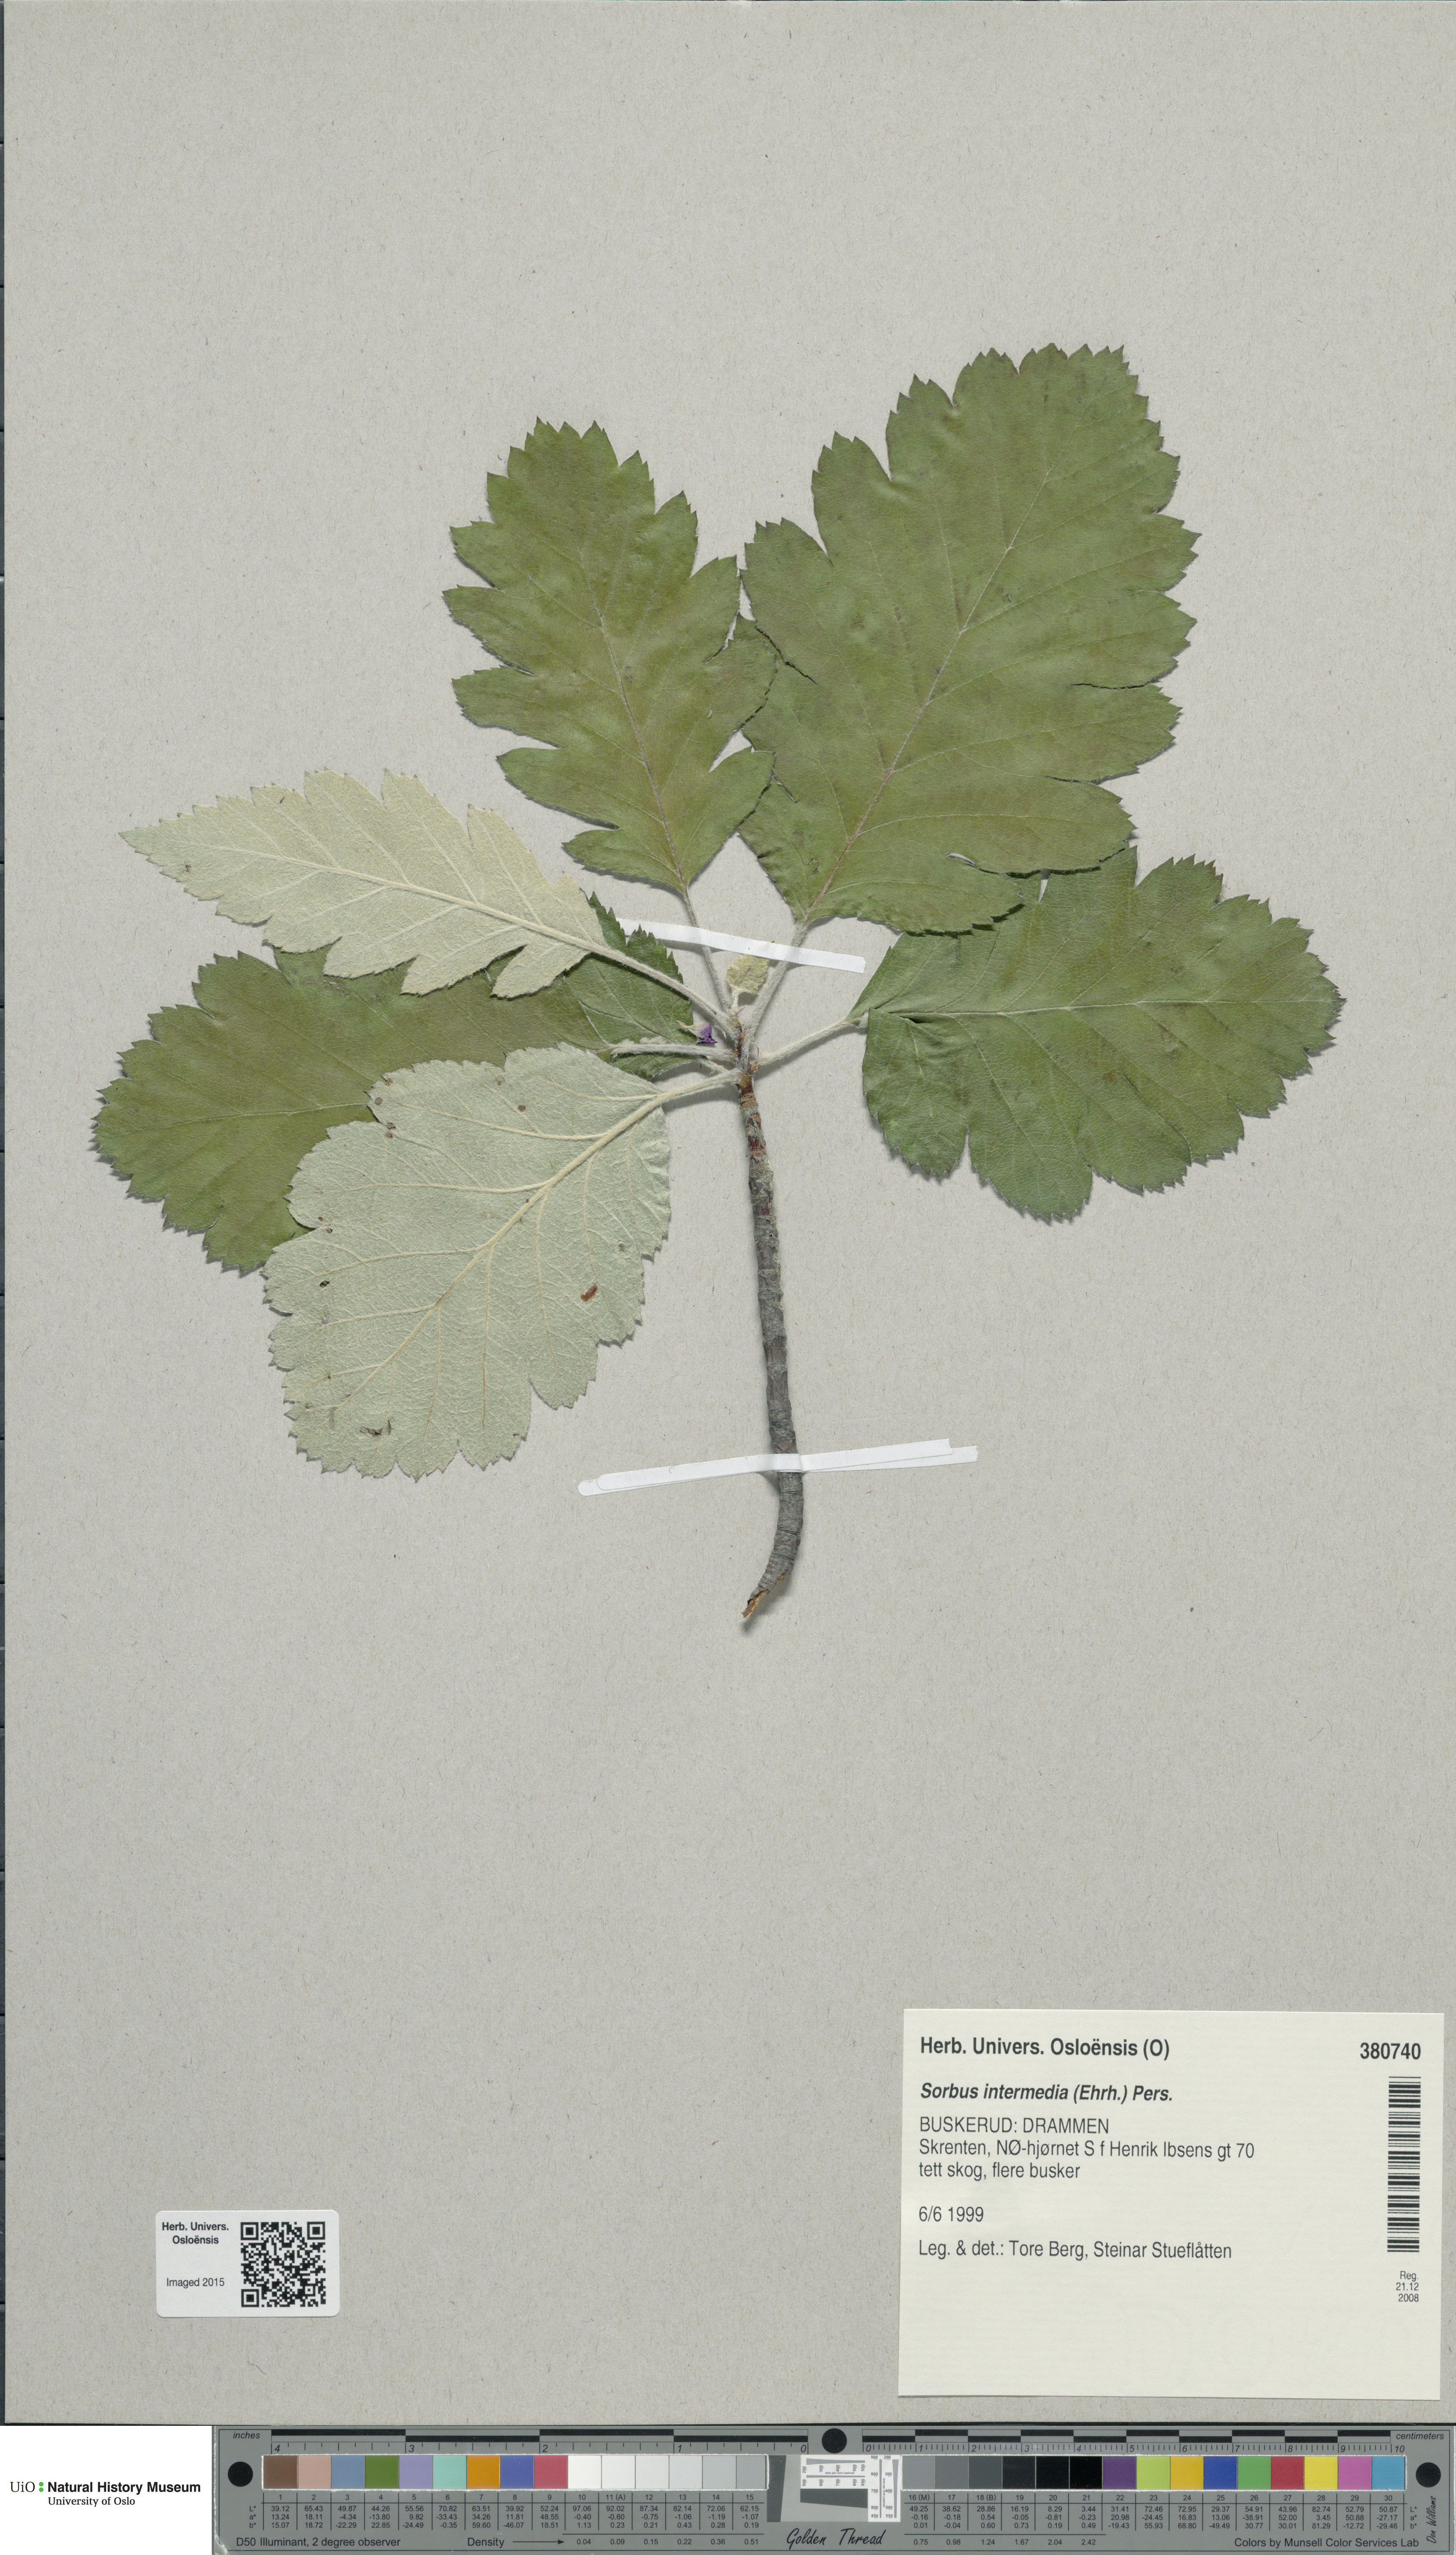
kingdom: Plantae
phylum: Tracheophyta
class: Magnoliopsida
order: Rosales
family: Rosaceae
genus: Scandosorbus
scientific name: Scandosorbus intermedia
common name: Swedish whitebeam
